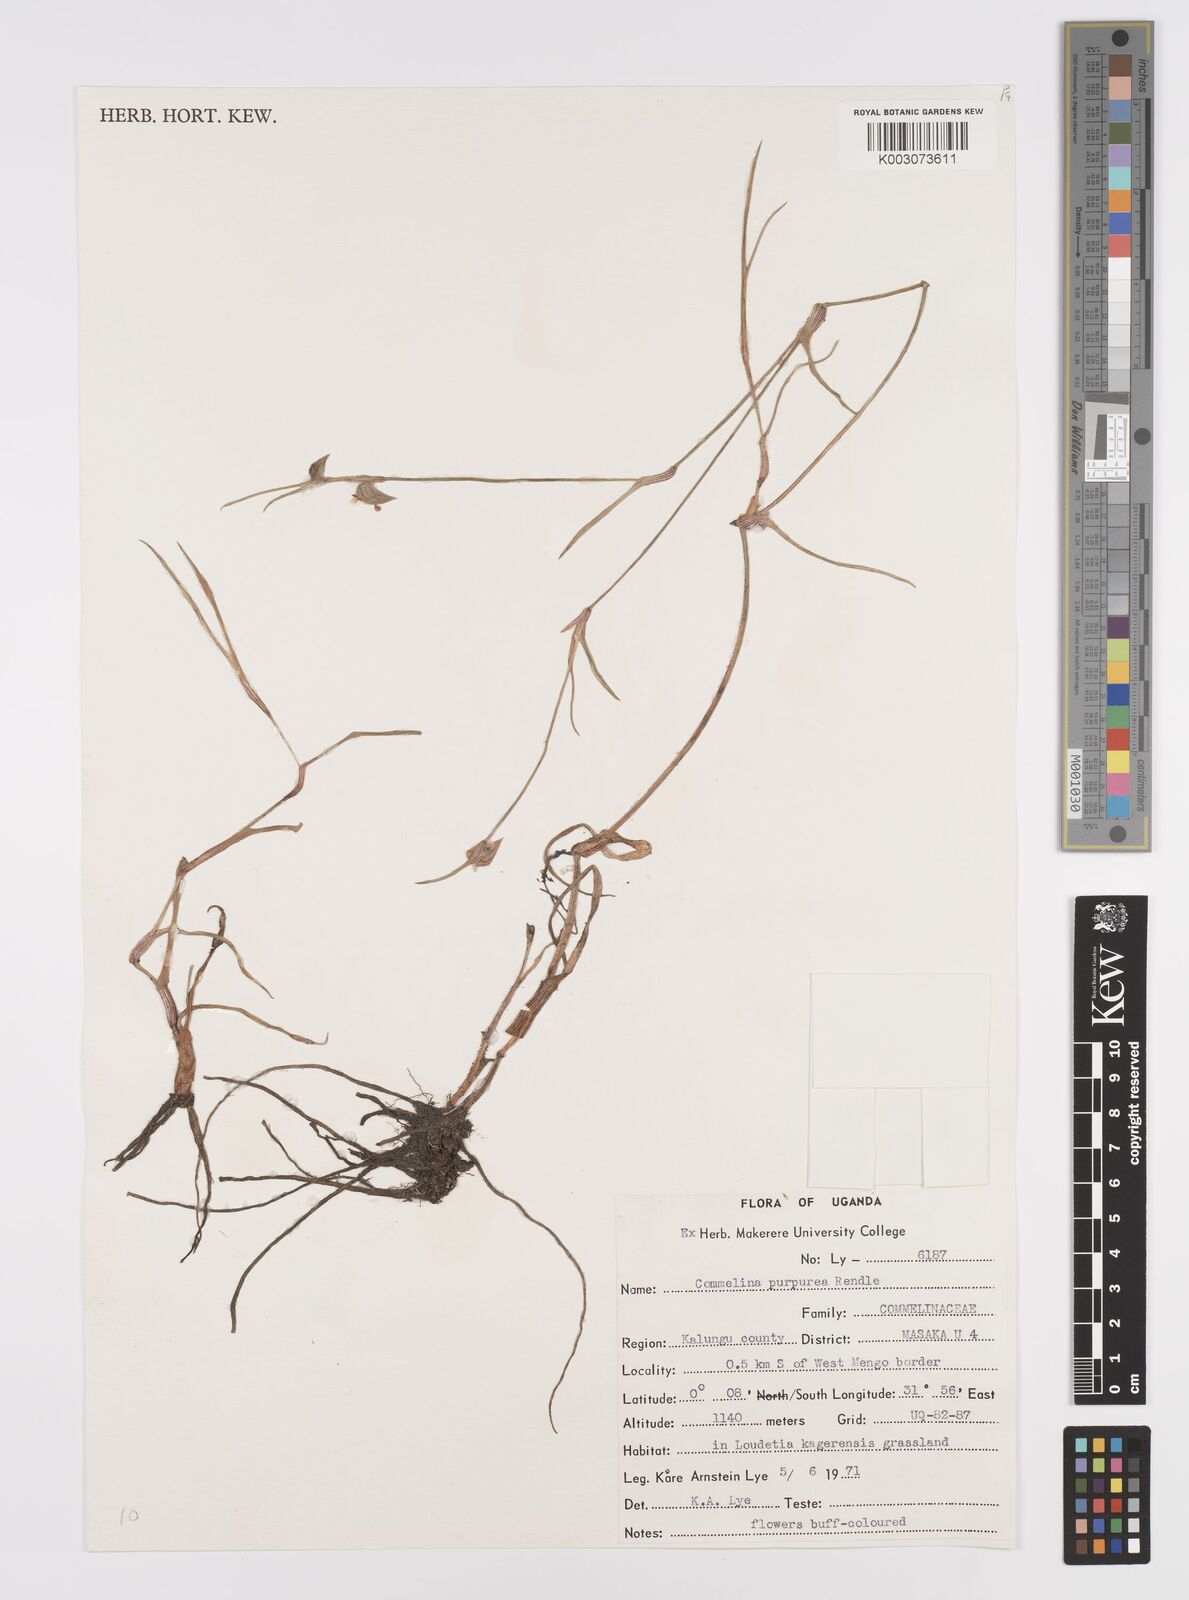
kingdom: Plantae
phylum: Tracheophyta
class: Liliopsida
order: Commelinales
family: Commelinaceae
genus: Commelina
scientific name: Commelina purpurea
